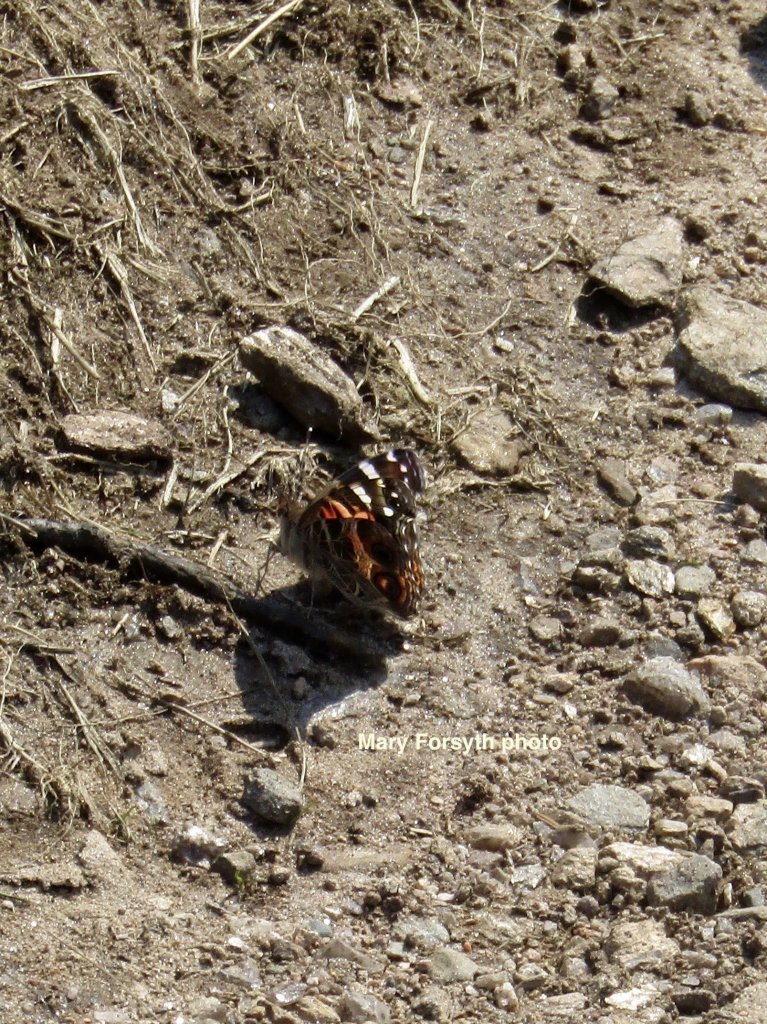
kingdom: Animalia
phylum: Arthropoda
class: Insecta
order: Lepidoptera
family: Nymphalidae
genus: Vanessa
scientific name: Vanessa virginiensis
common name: American Lady
